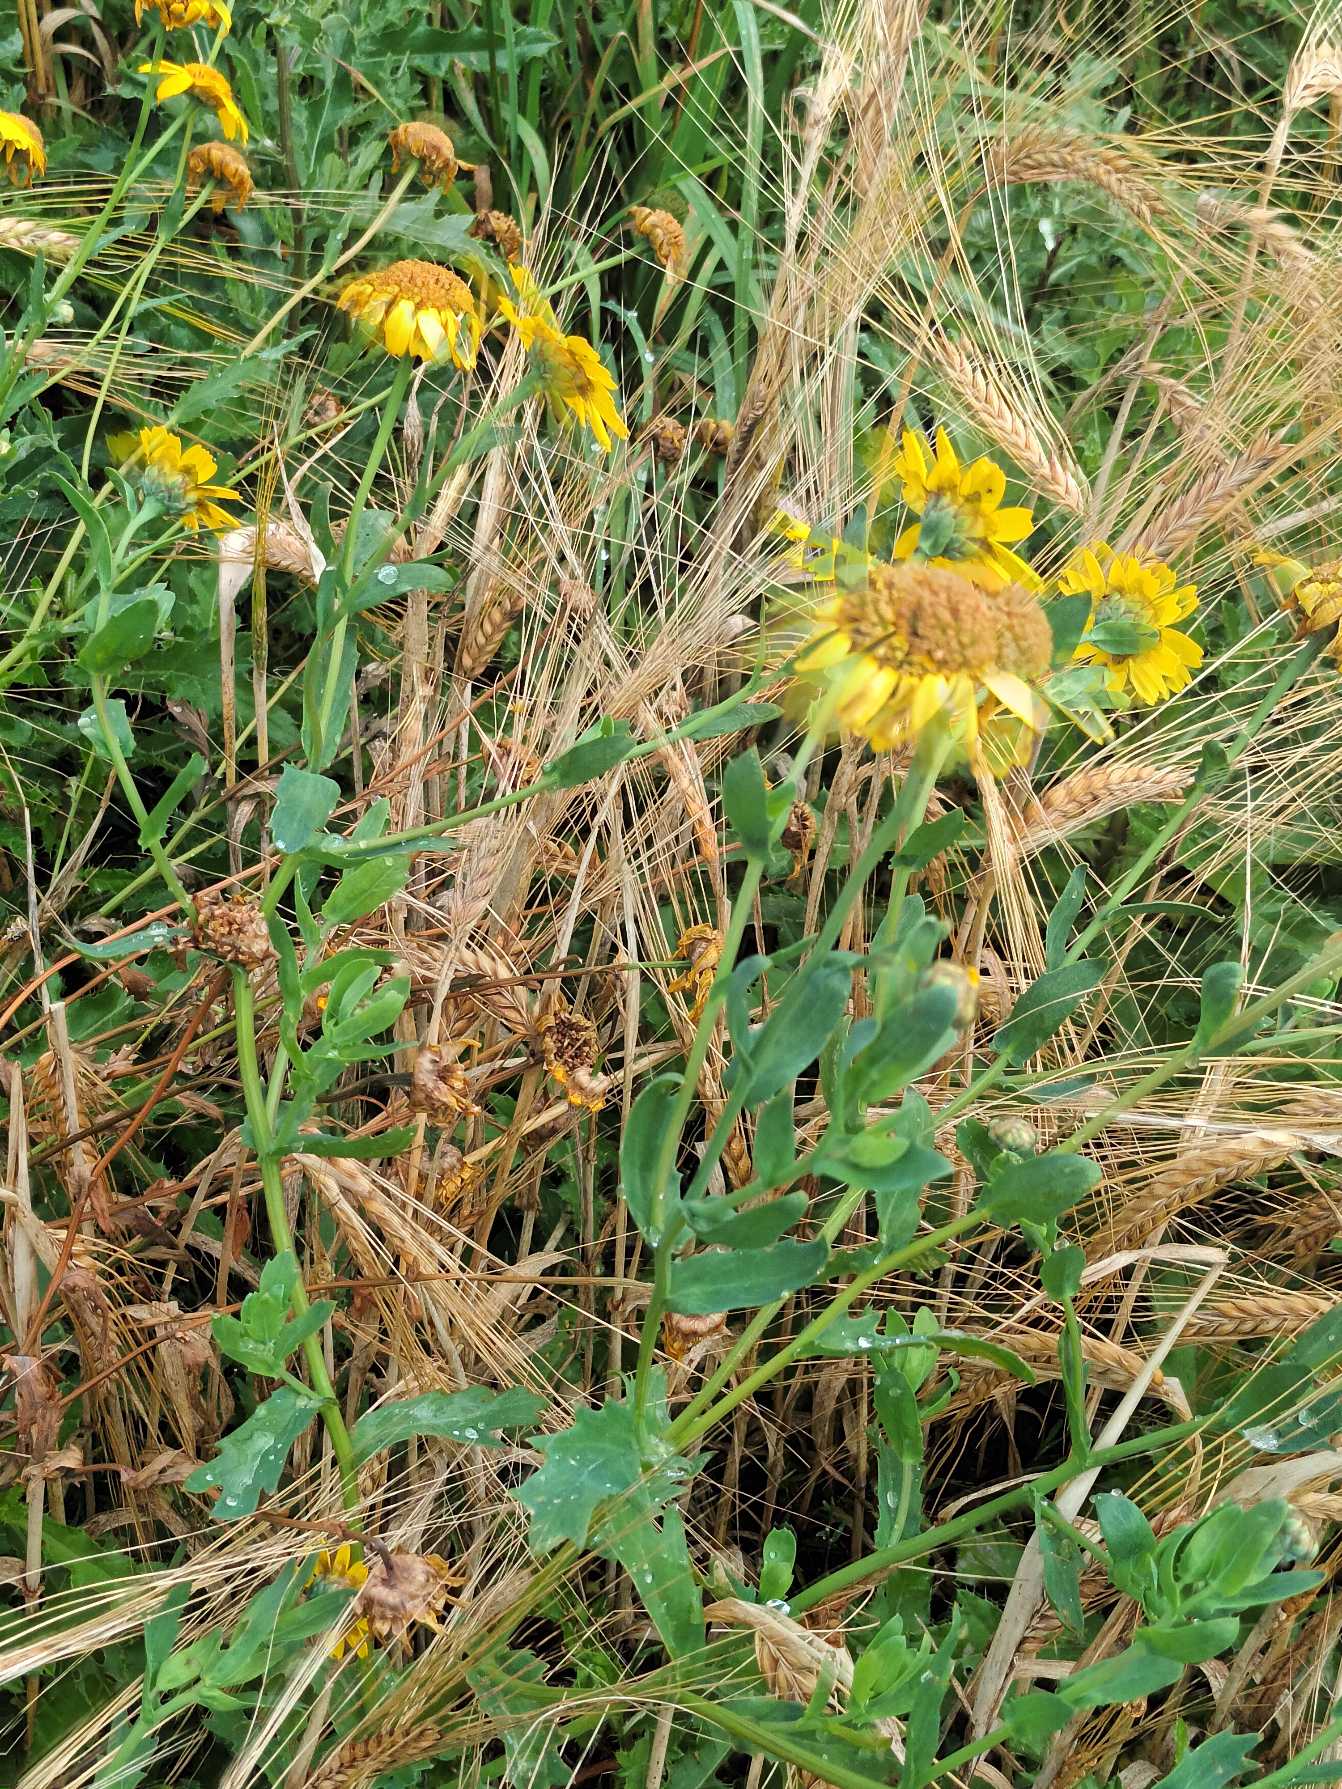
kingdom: Plantae
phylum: Tracheophyta
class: Magnoliopsida
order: Asterales
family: Asteraceae
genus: Glebionis
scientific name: Glebionis segetum
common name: Gul okseøje
